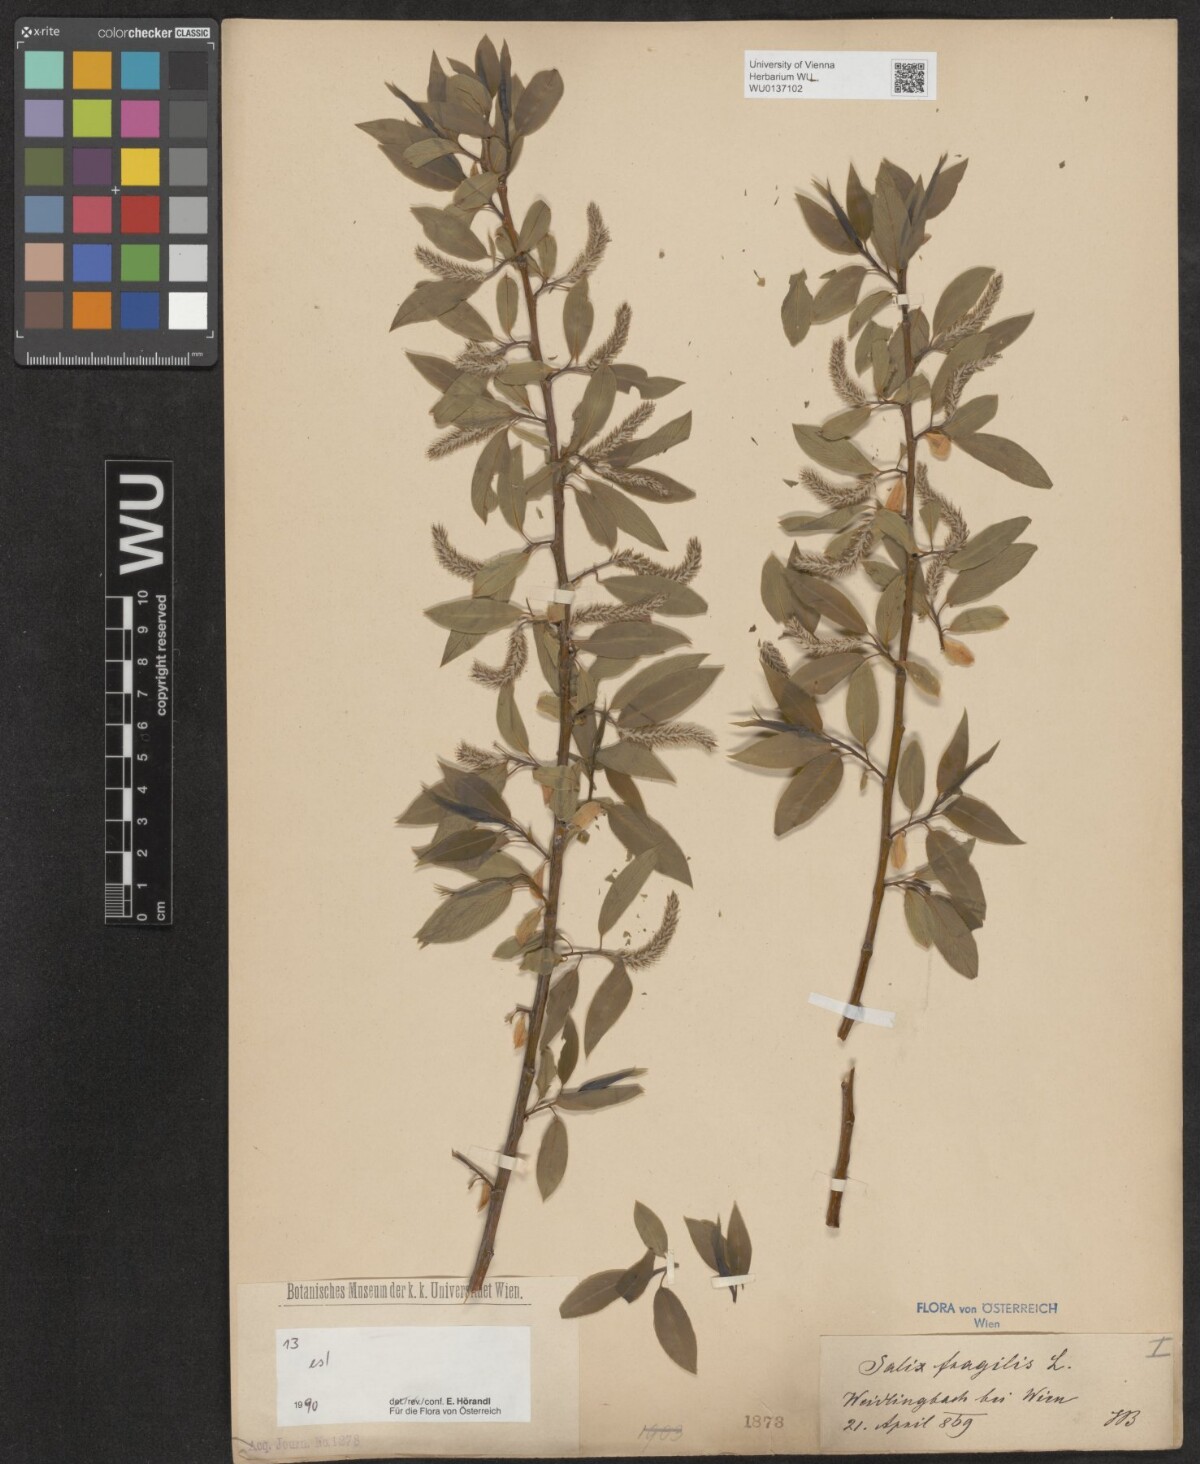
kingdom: Plantae
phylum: Tracheophyta
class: Magnoliopsida
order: Malpighiales
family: Salicaceae
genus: Salix
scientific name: Salix fragilis
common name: Crack willow
